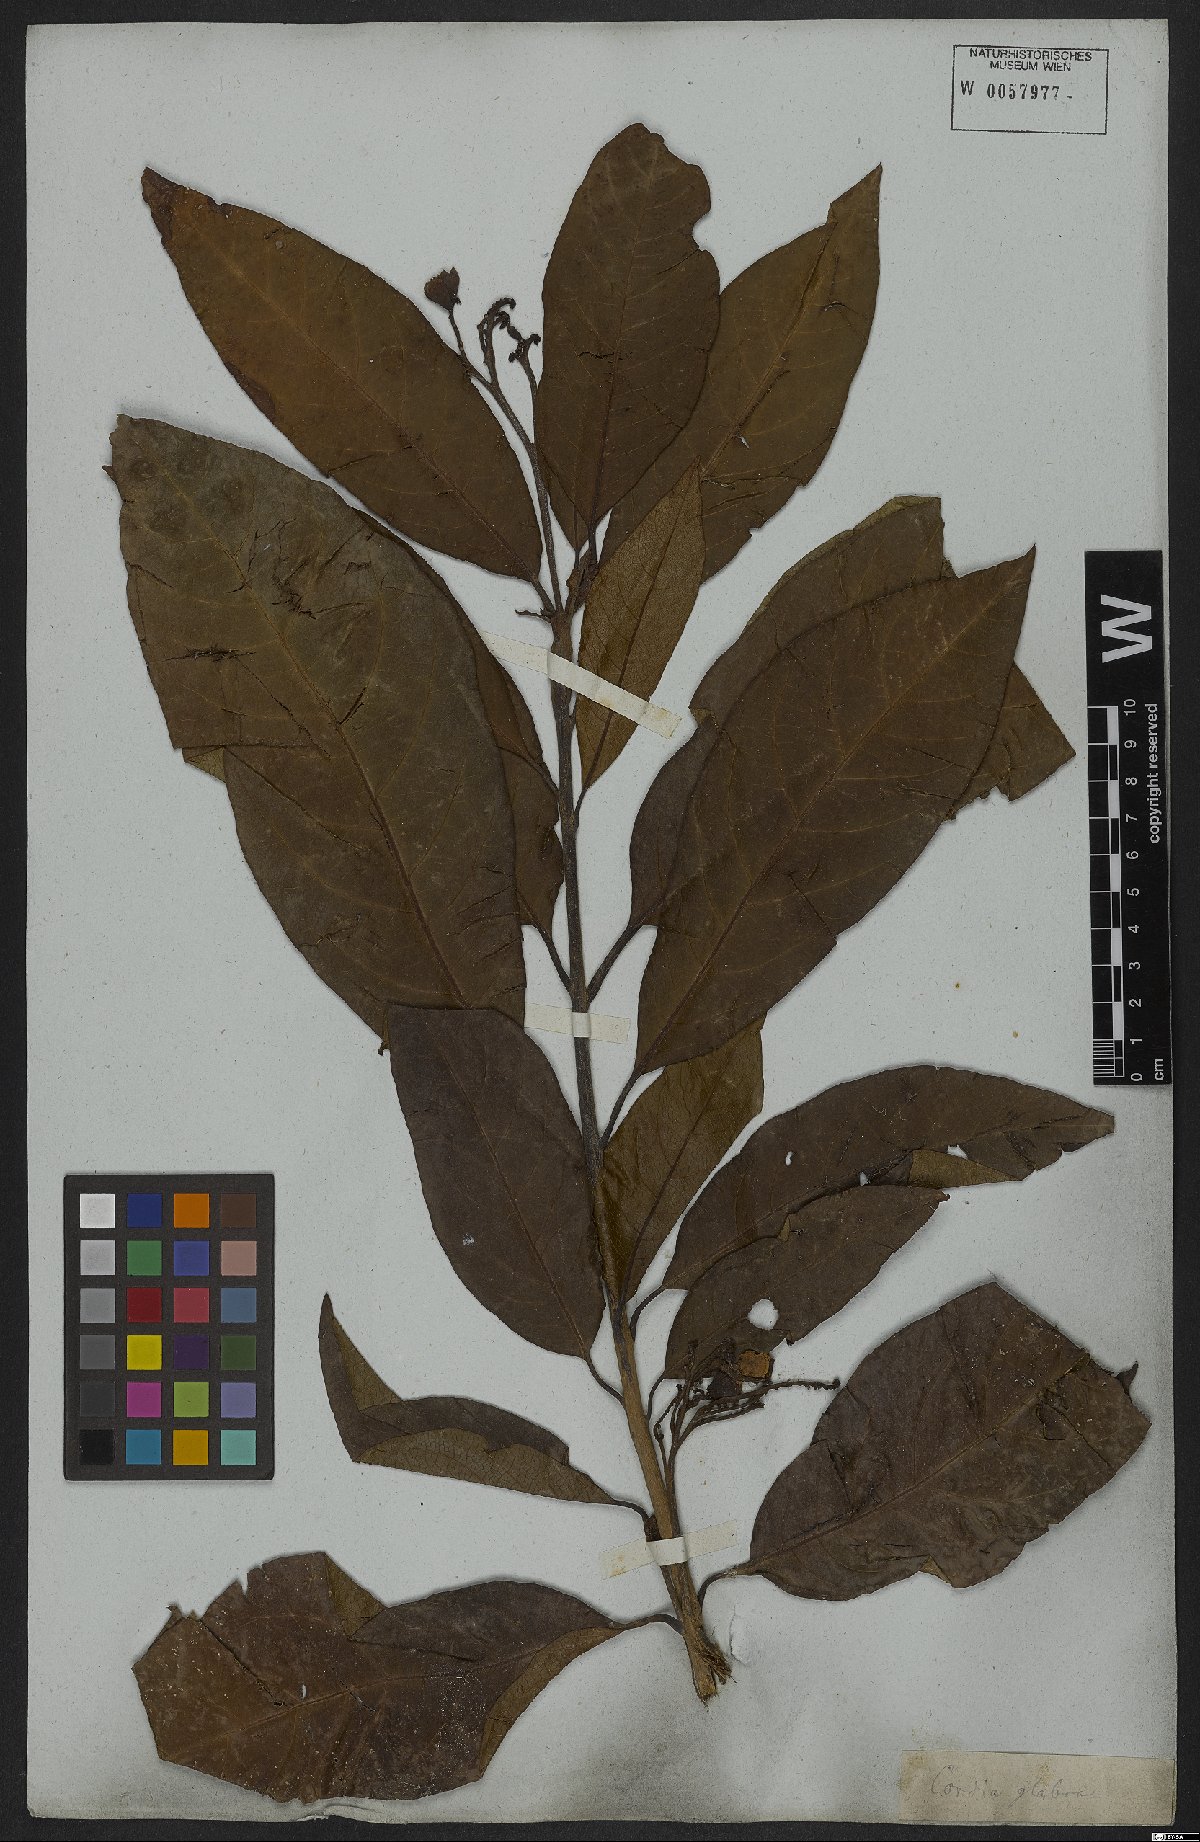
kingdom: Plantae
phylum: Tracheophyta
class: Magnoliopsida
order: Boraginales
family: Cordiaceae
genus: Cordia
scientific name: Cordia glabra
